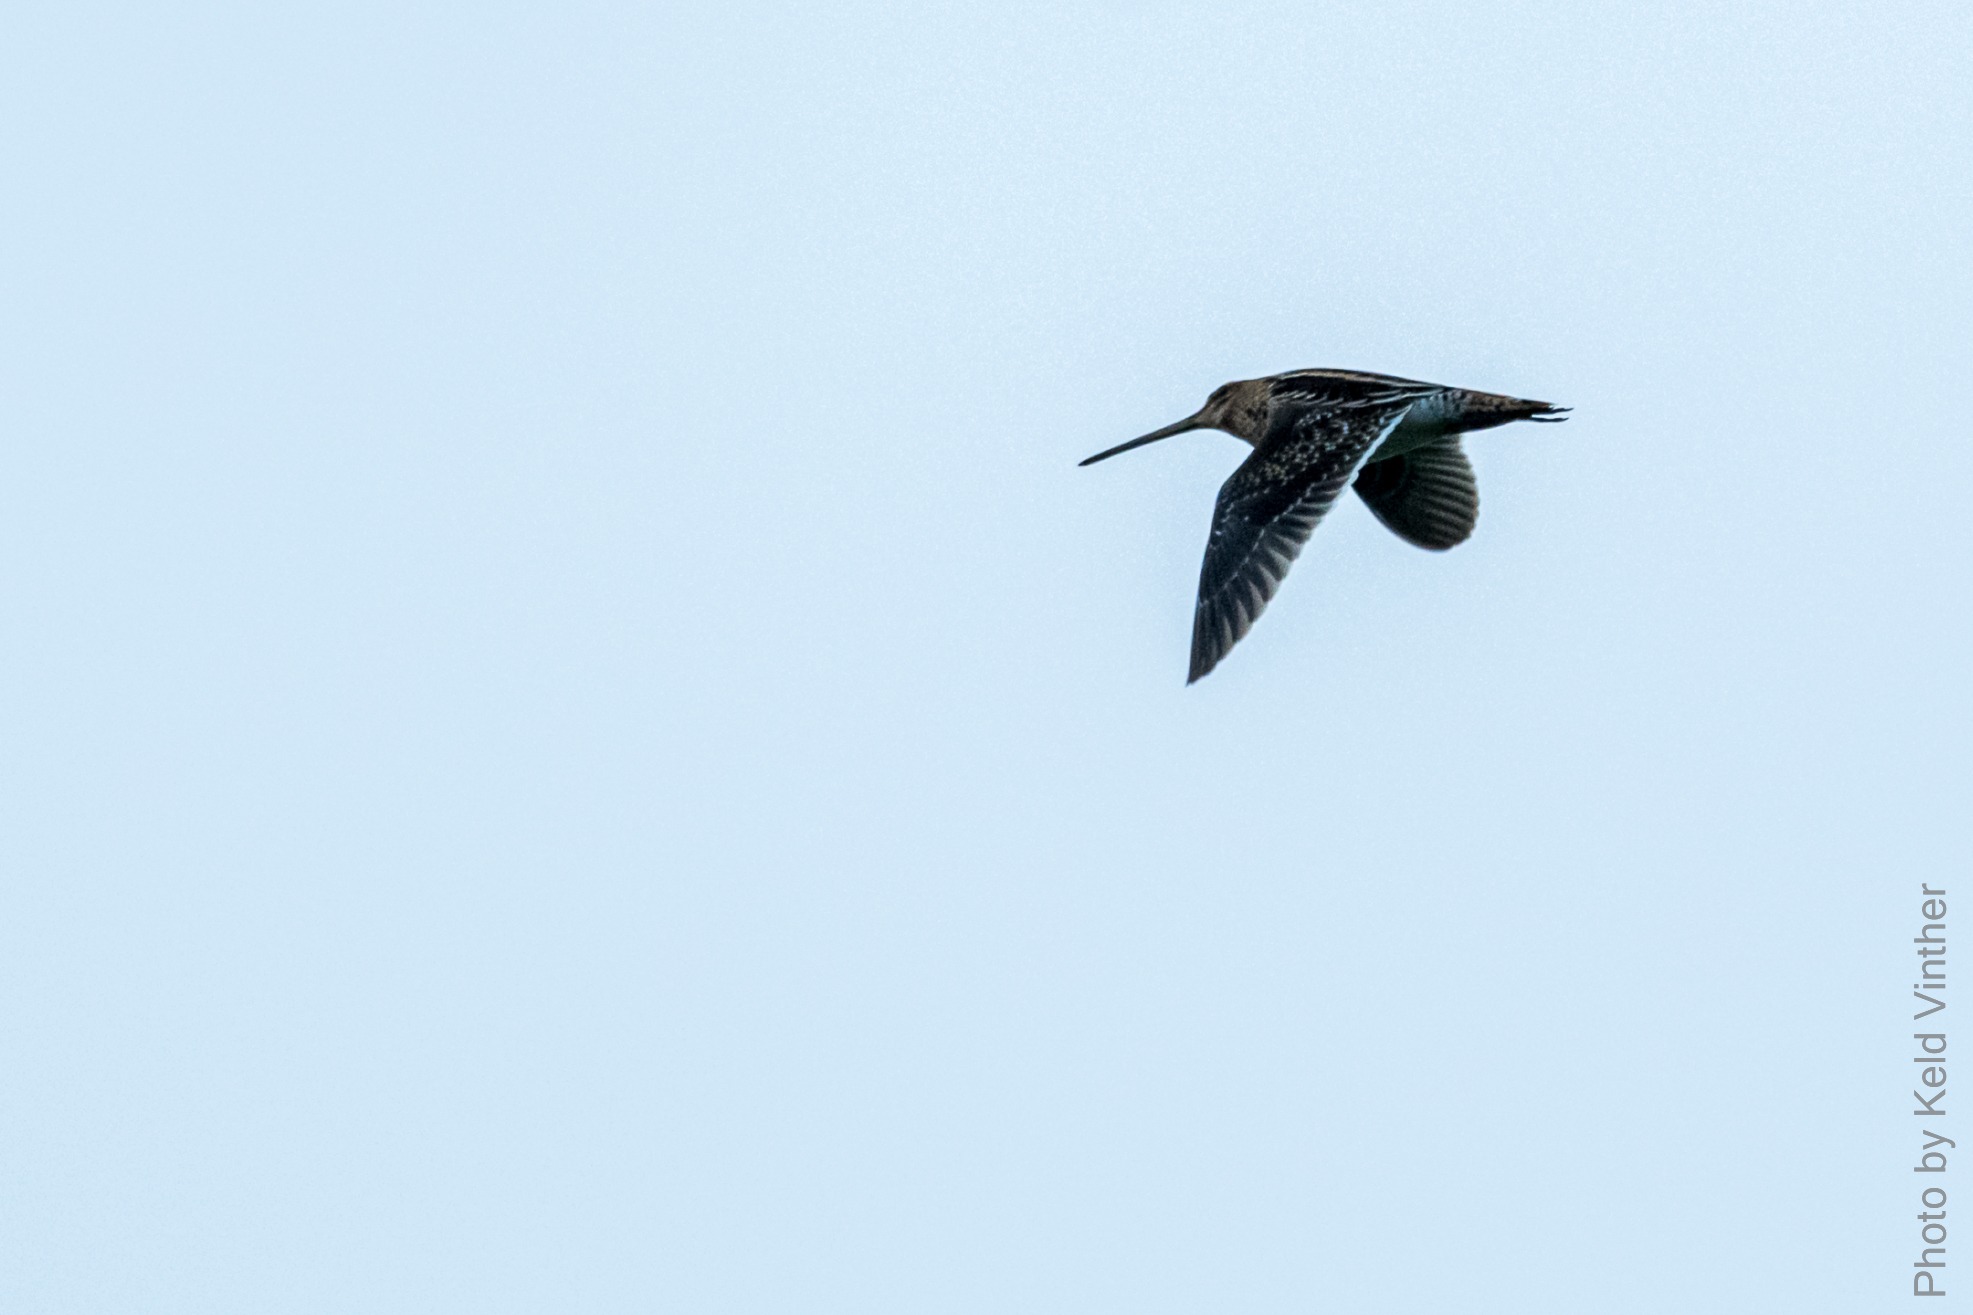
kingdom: Animalia
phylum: Chordata
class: Aves
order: Charadriiformes
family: Scolopacidae
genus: Gallinago
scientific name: Gallinago gallinago
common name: Dobbeltbekkasin
